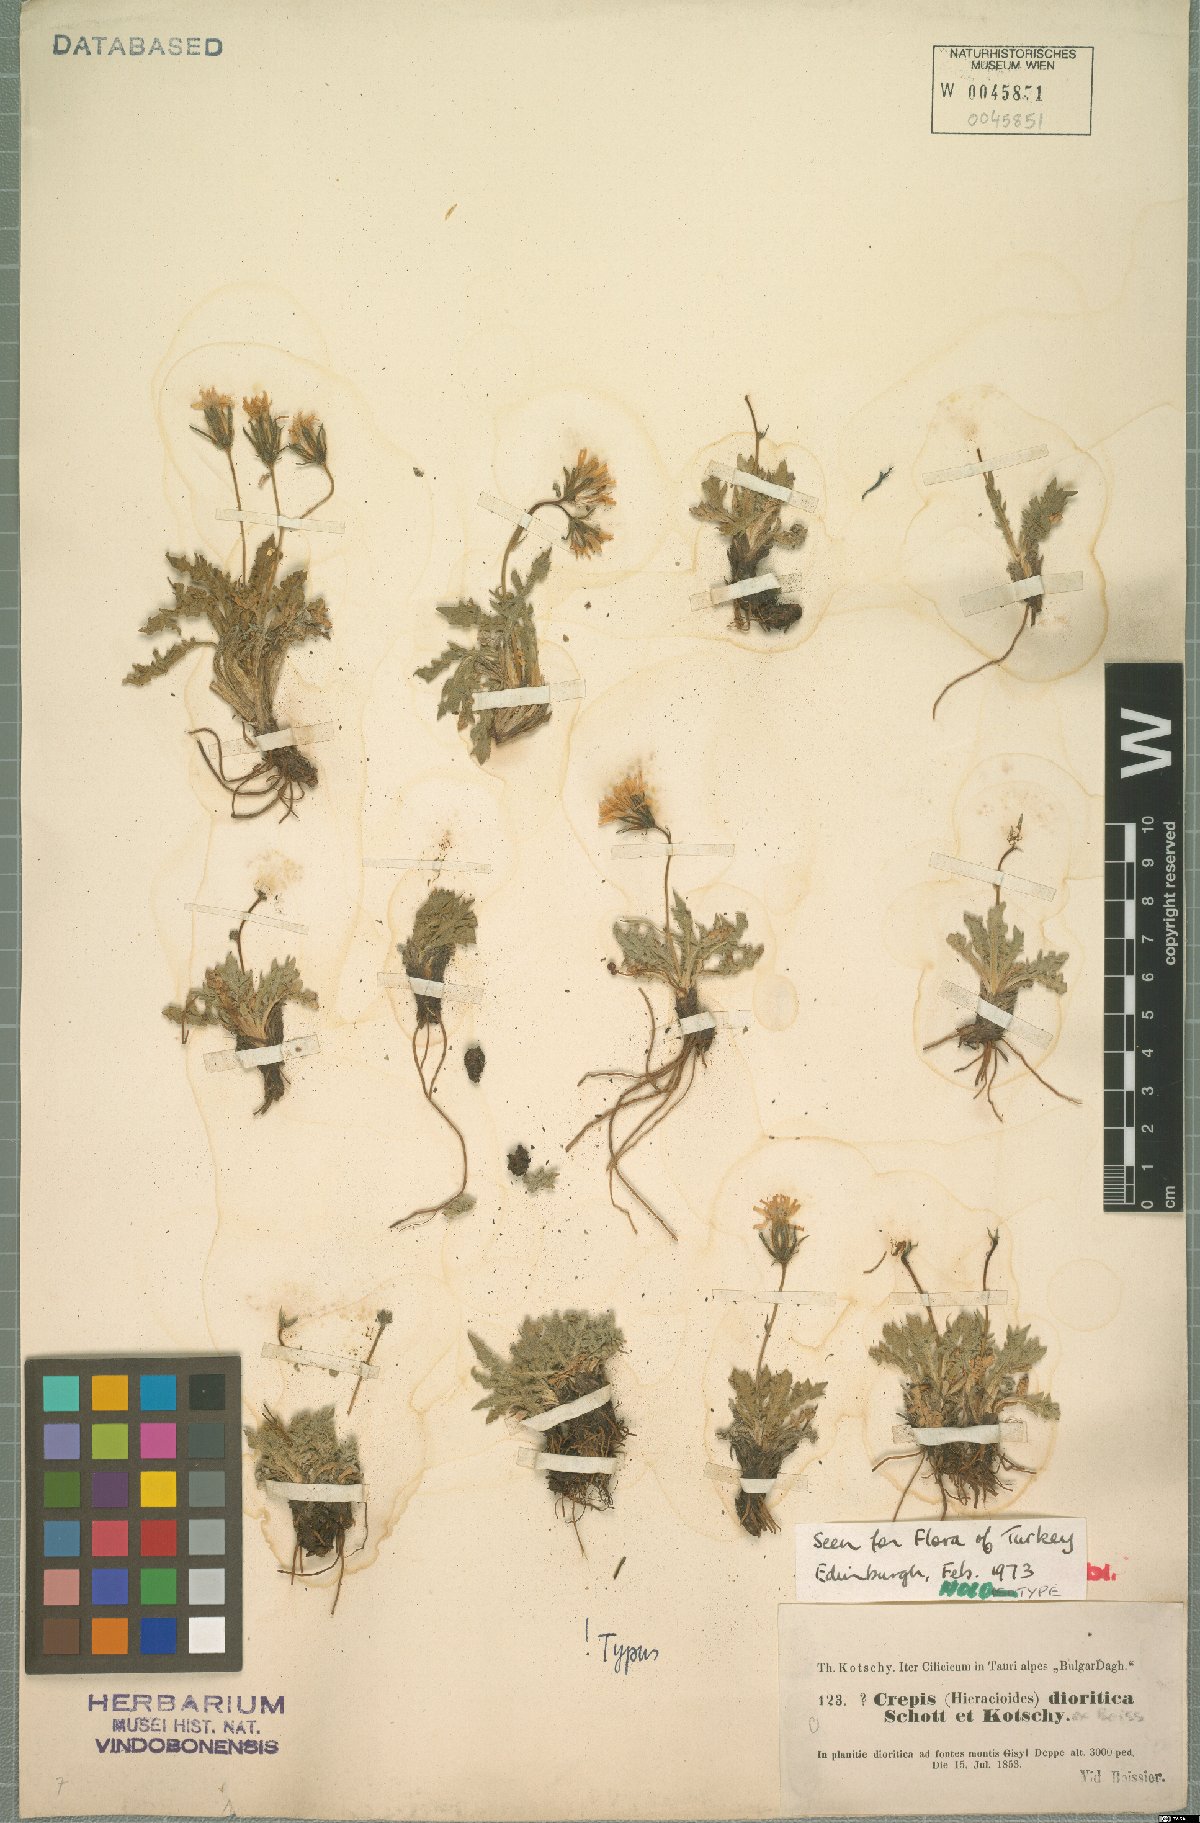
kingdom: Plantae
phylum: Tracheophyta
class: Magnoliopsida
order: Asterales
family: Asteraceae
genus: Crepis
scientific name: Crepis dioritica
